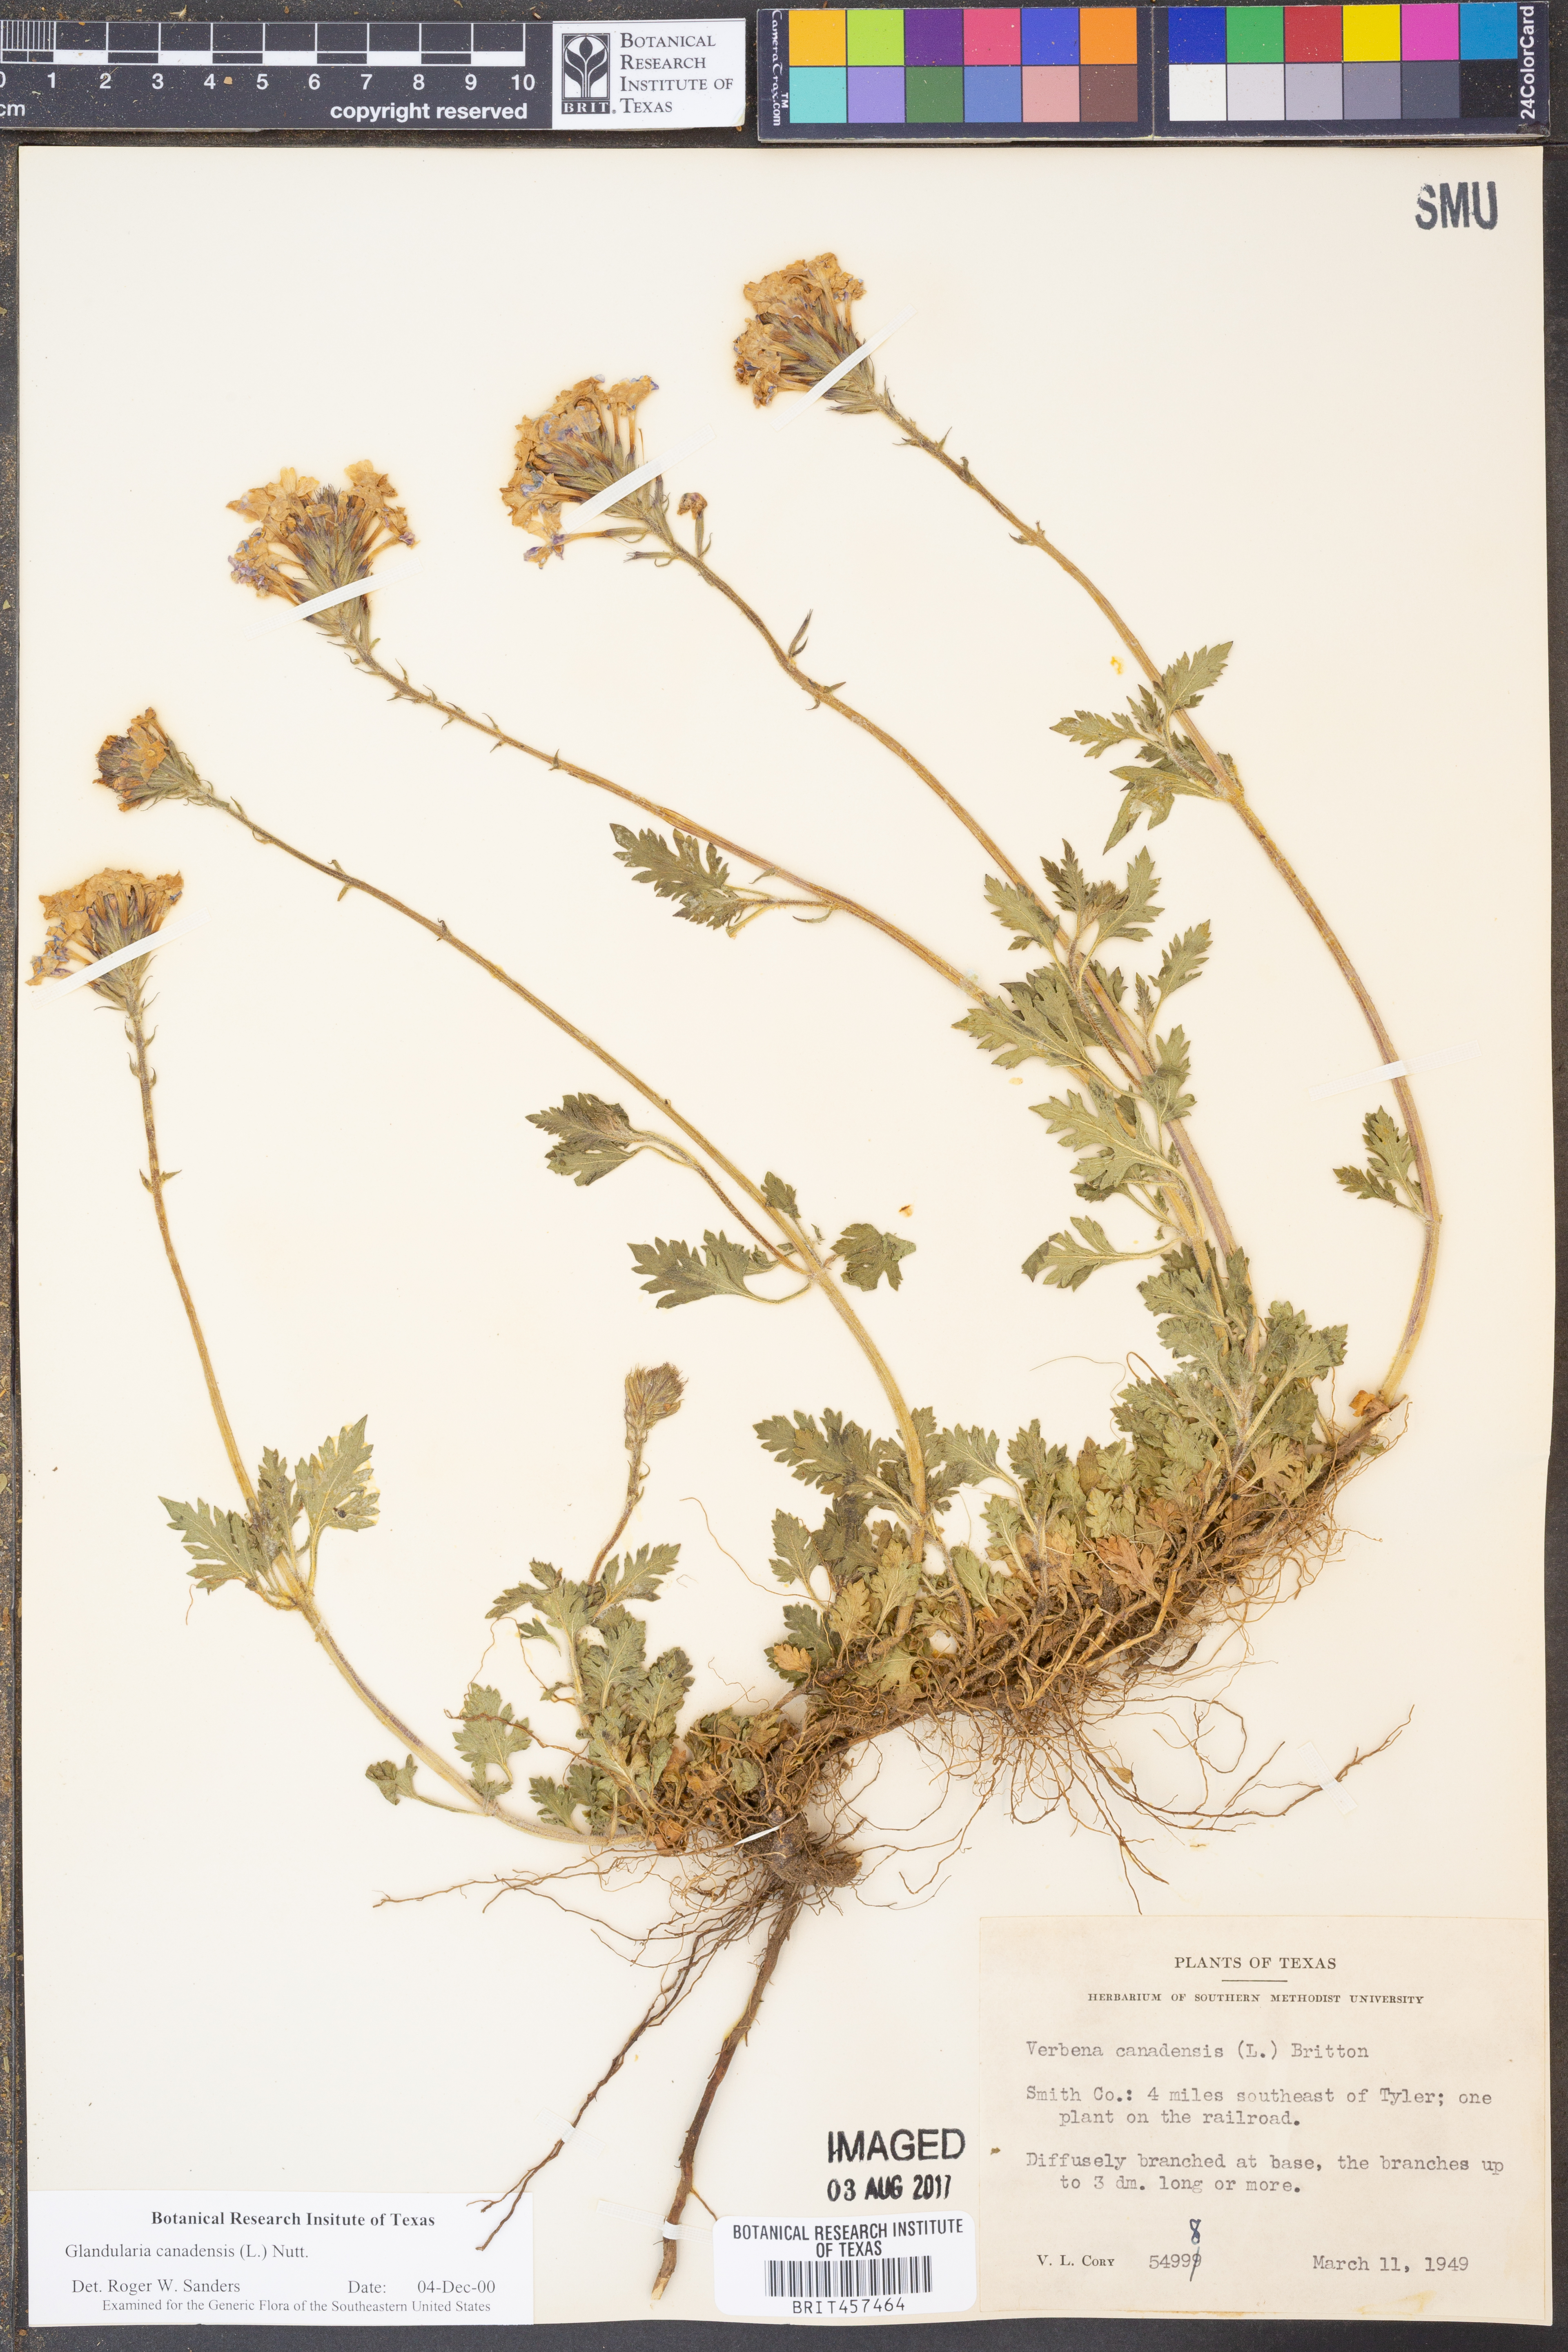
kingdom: Plantae
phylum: Tracheophyta
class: Magnoliopsida
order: Lamiales
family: Verbenaceae
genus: Verbena
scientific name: Verbena canadensis
